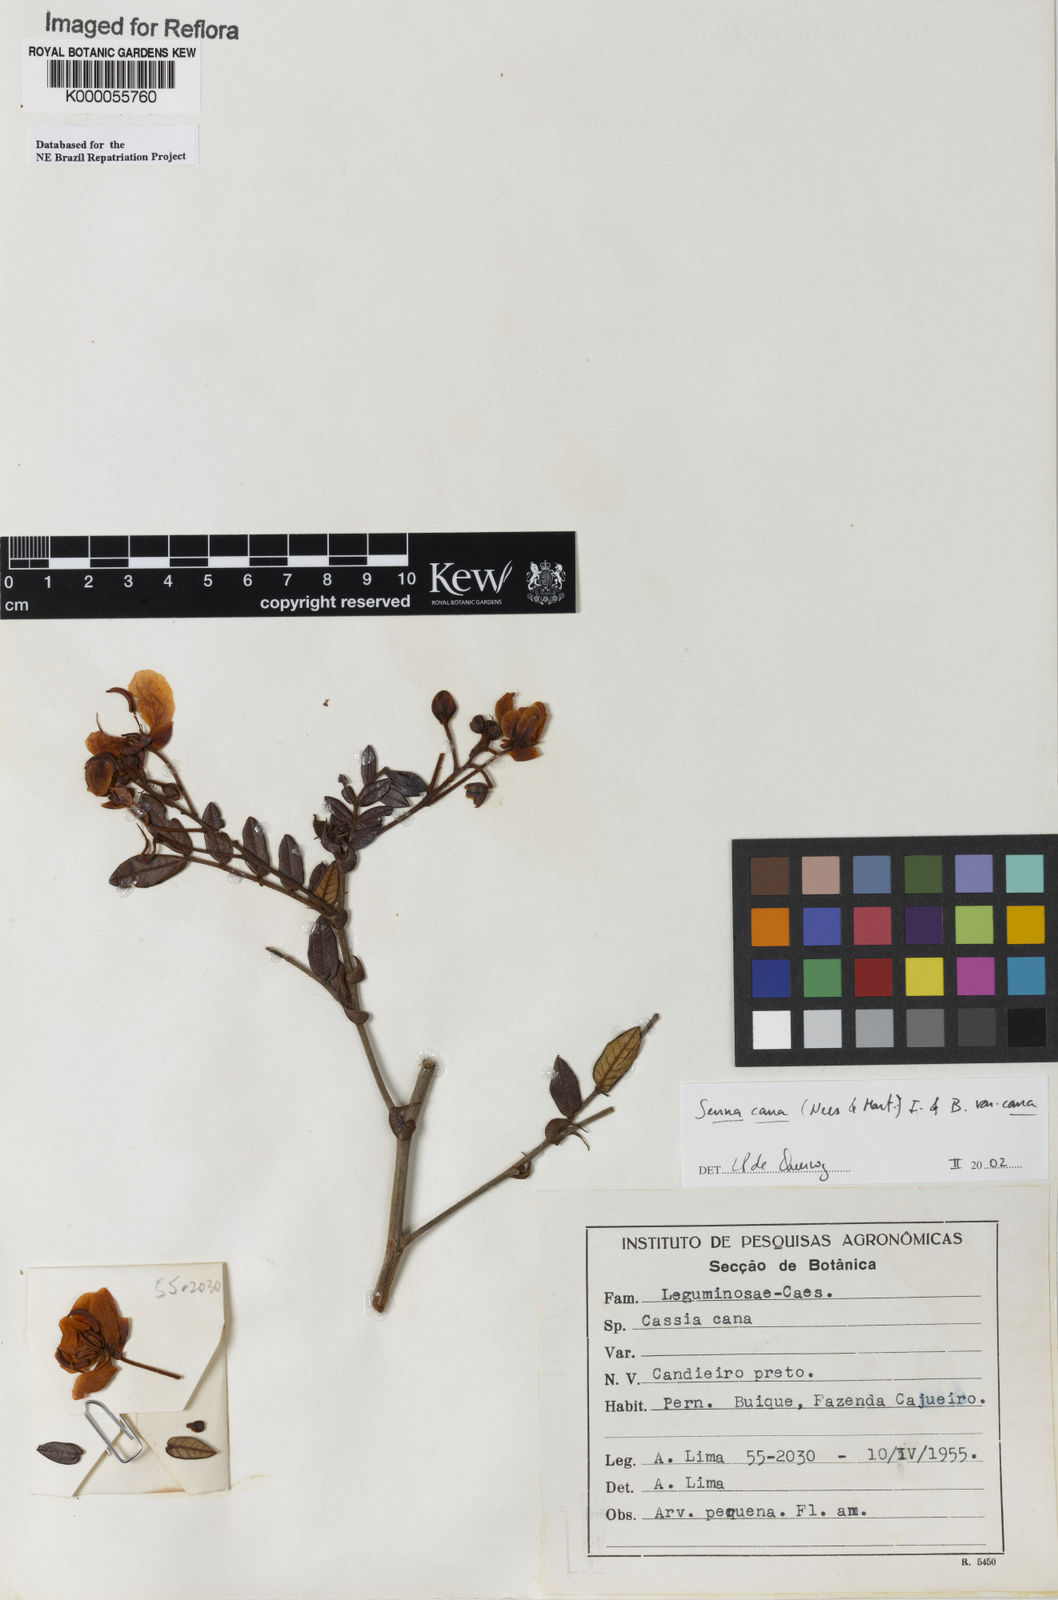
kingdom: Plantae
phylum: Tracheophyta
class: Magnoliopsida
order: Fabales
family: Fabaceae
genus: Senna
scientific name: Senna cana
